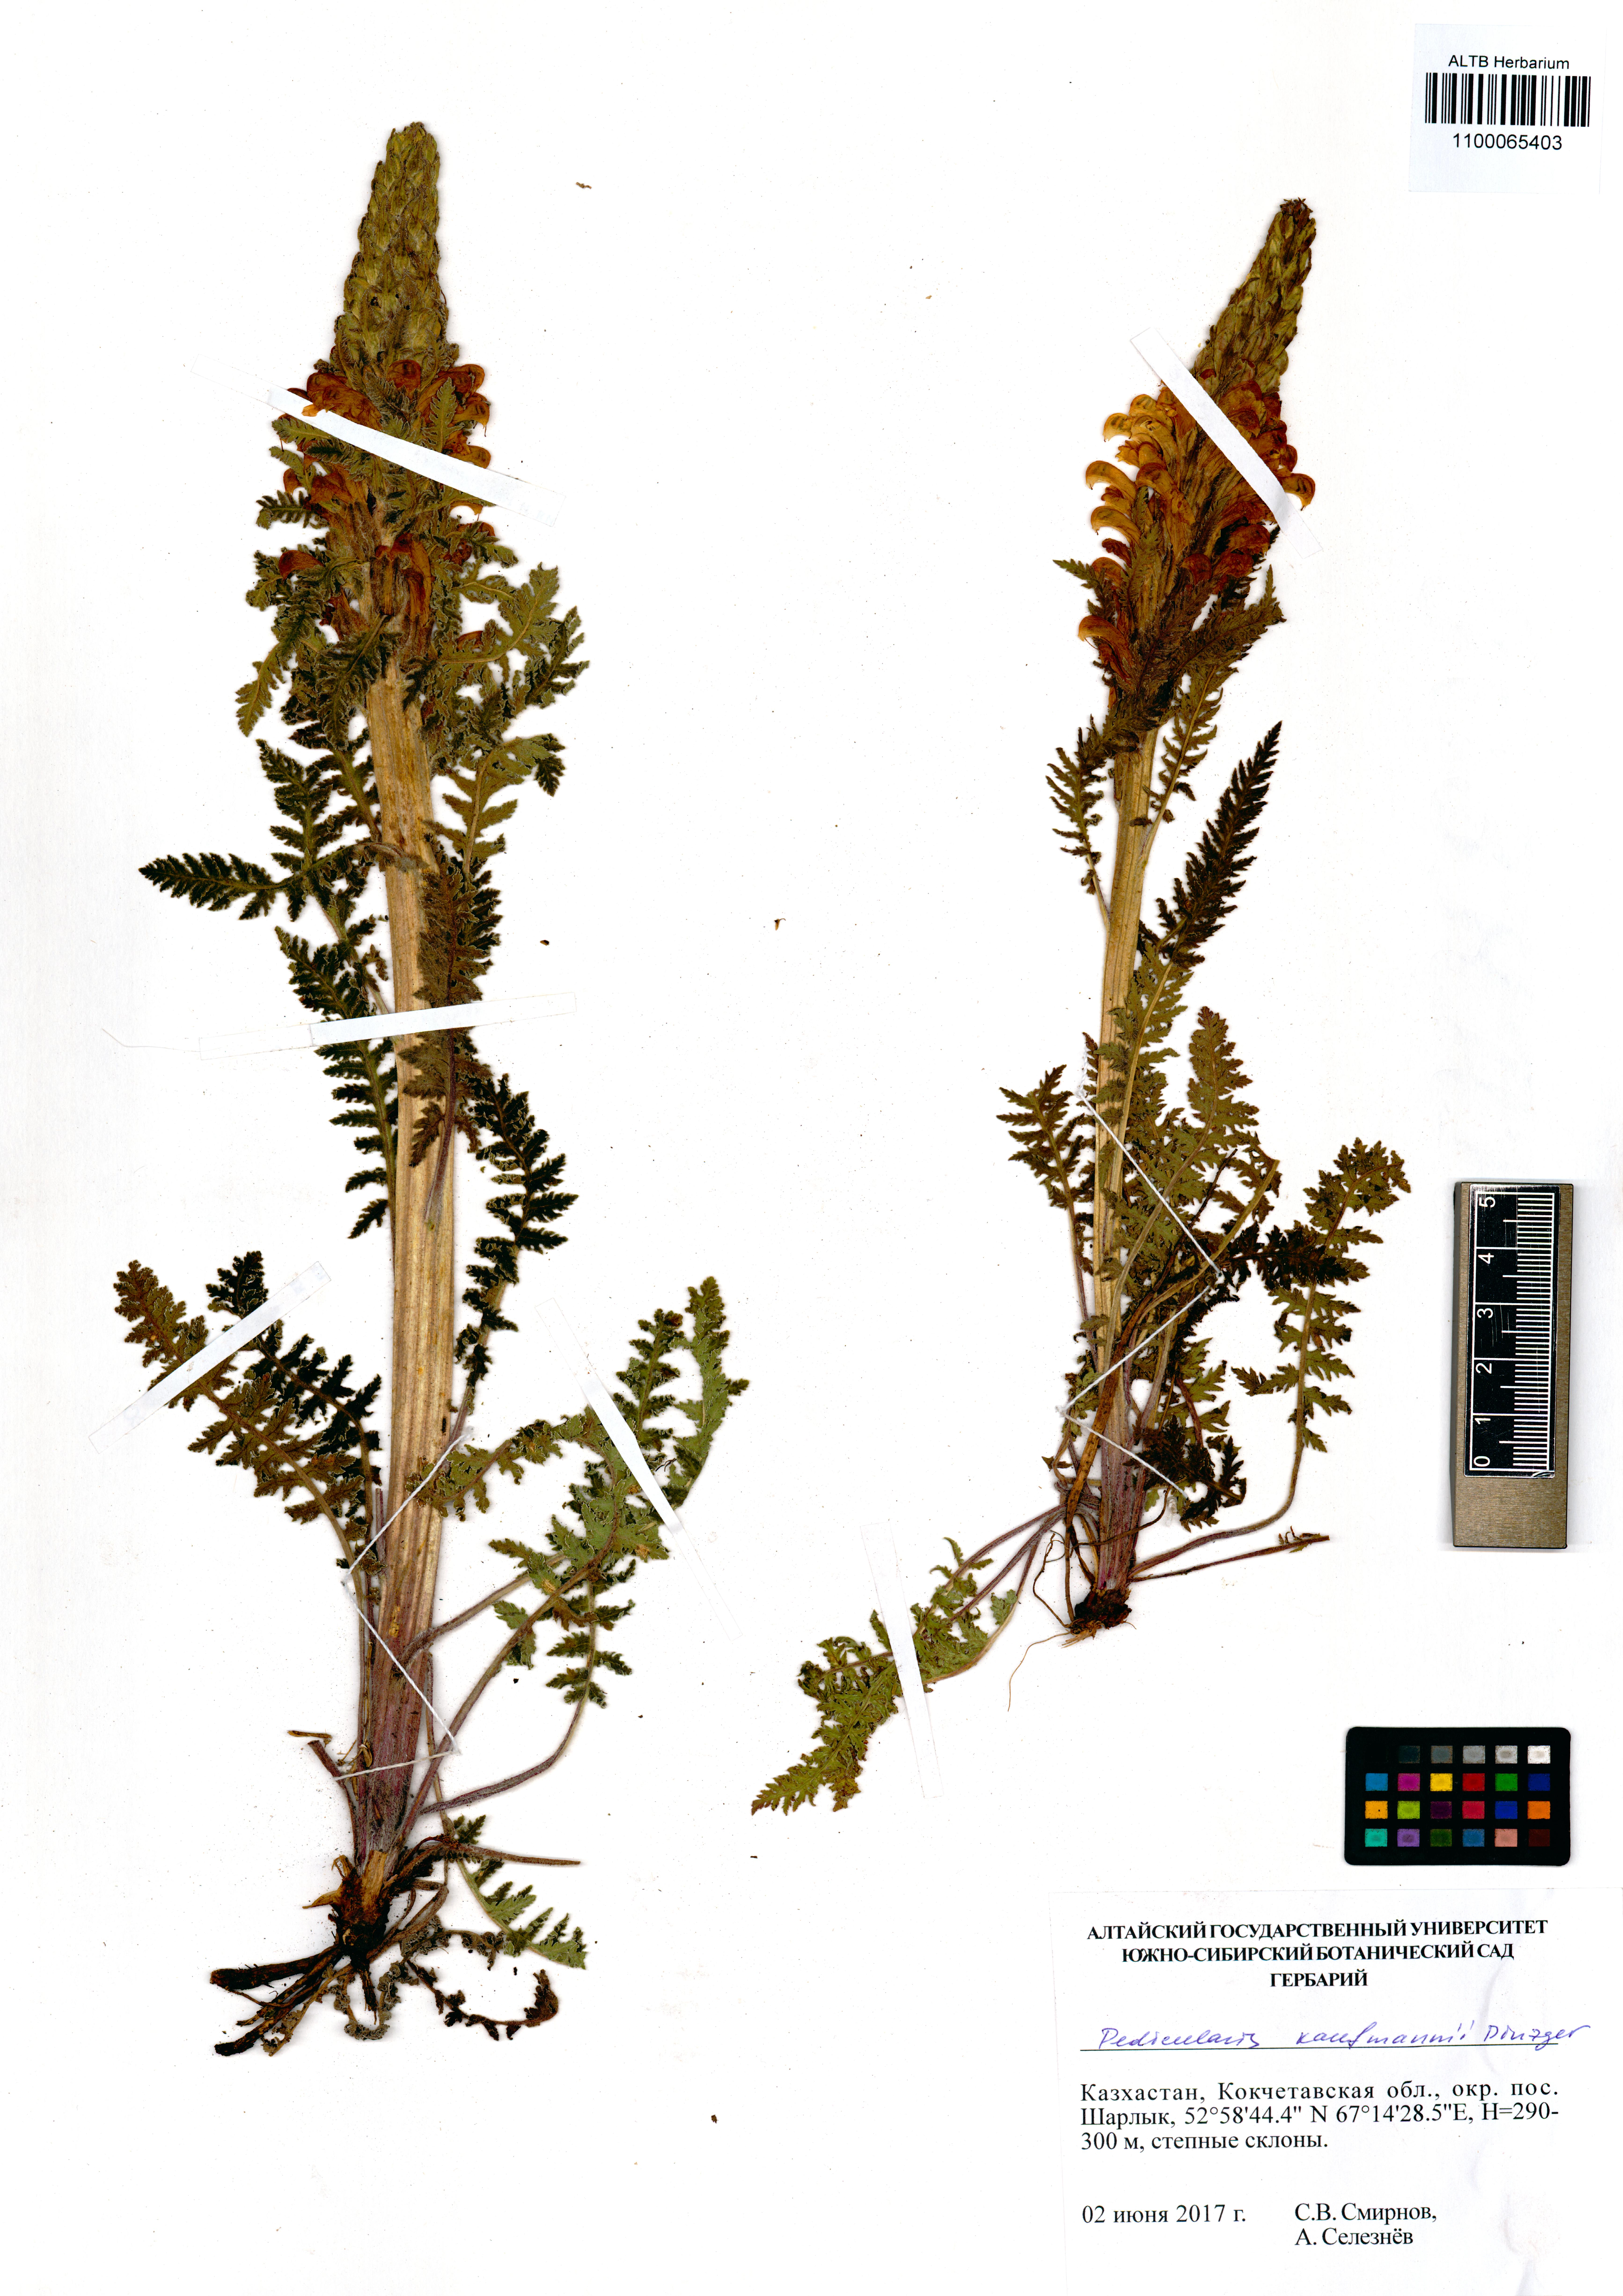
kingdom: Plantae
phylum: Tracheophyta
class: Magnoliopsida
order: Lamiales
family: Orobanchaceae
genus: Pedicularis
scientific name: Pedicularis kaufmannii
